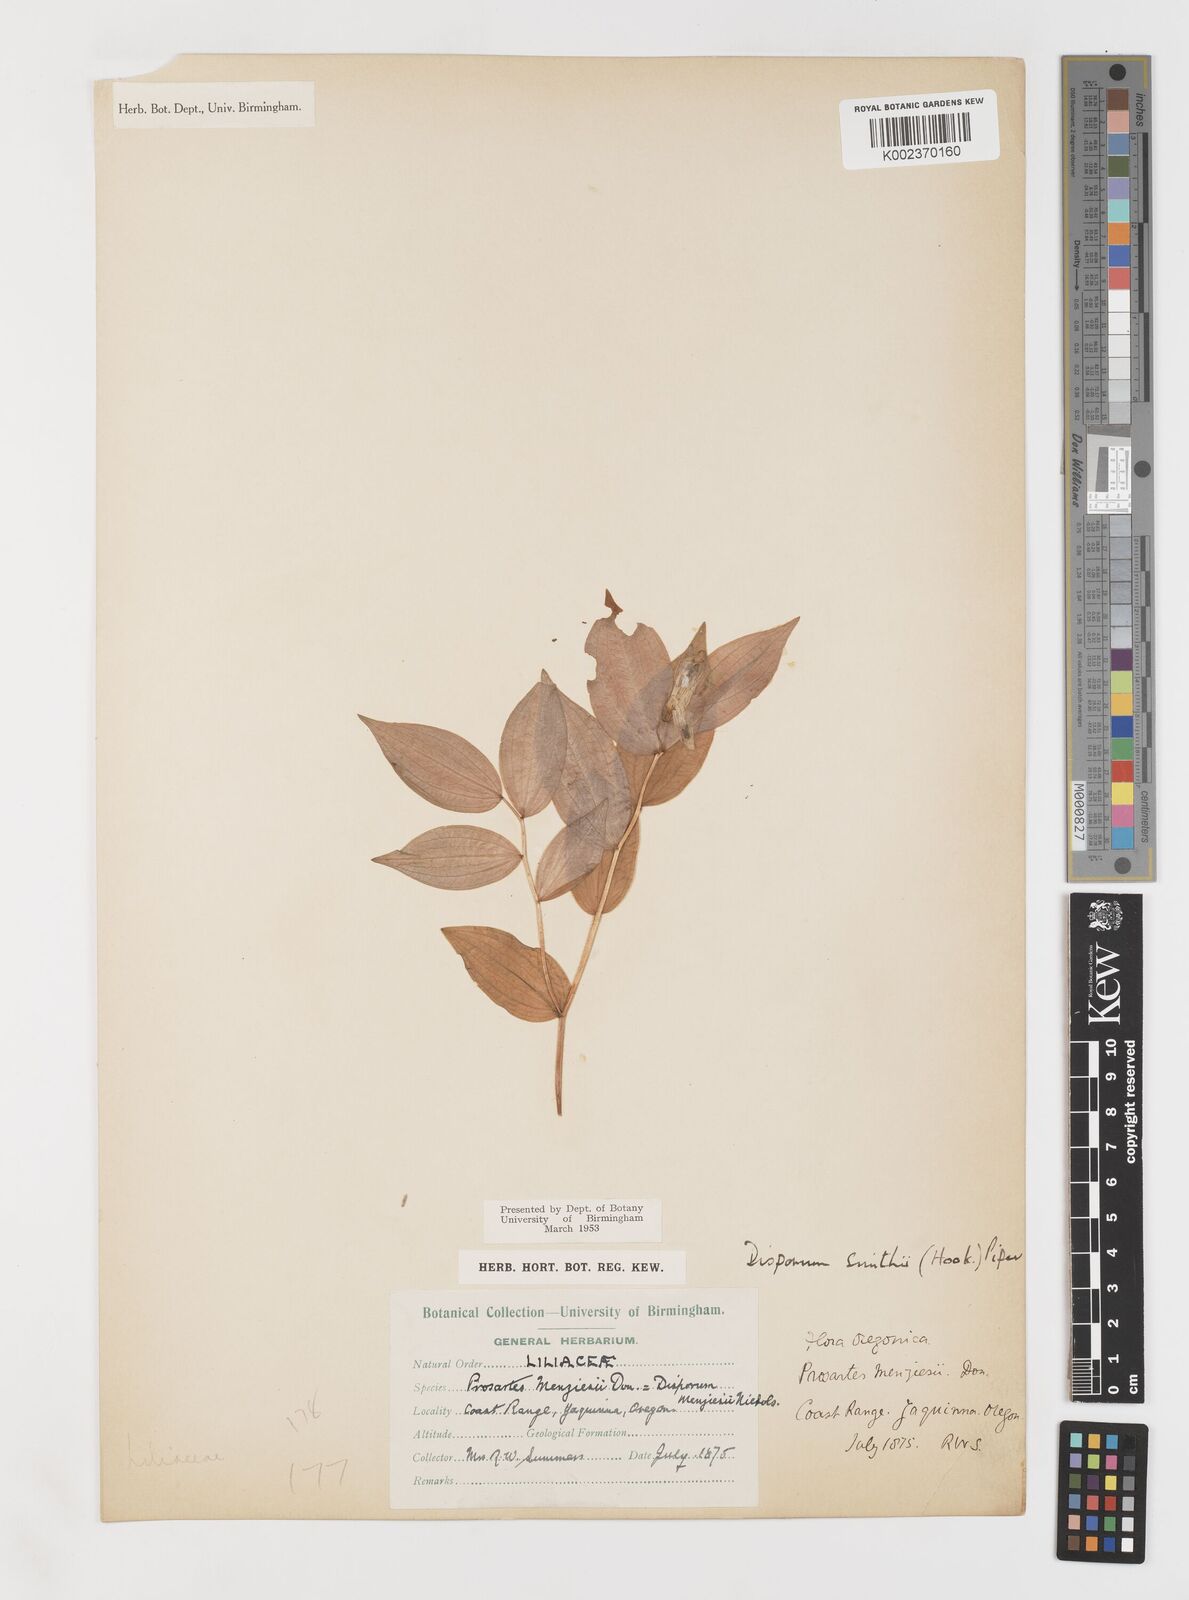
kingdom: Plantae
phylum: Tracheophyta
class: Liliopsida
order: Liliales
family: Liliaceae
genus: Prosartes
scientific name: Prosartes smithii
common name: Fairy-lantern
